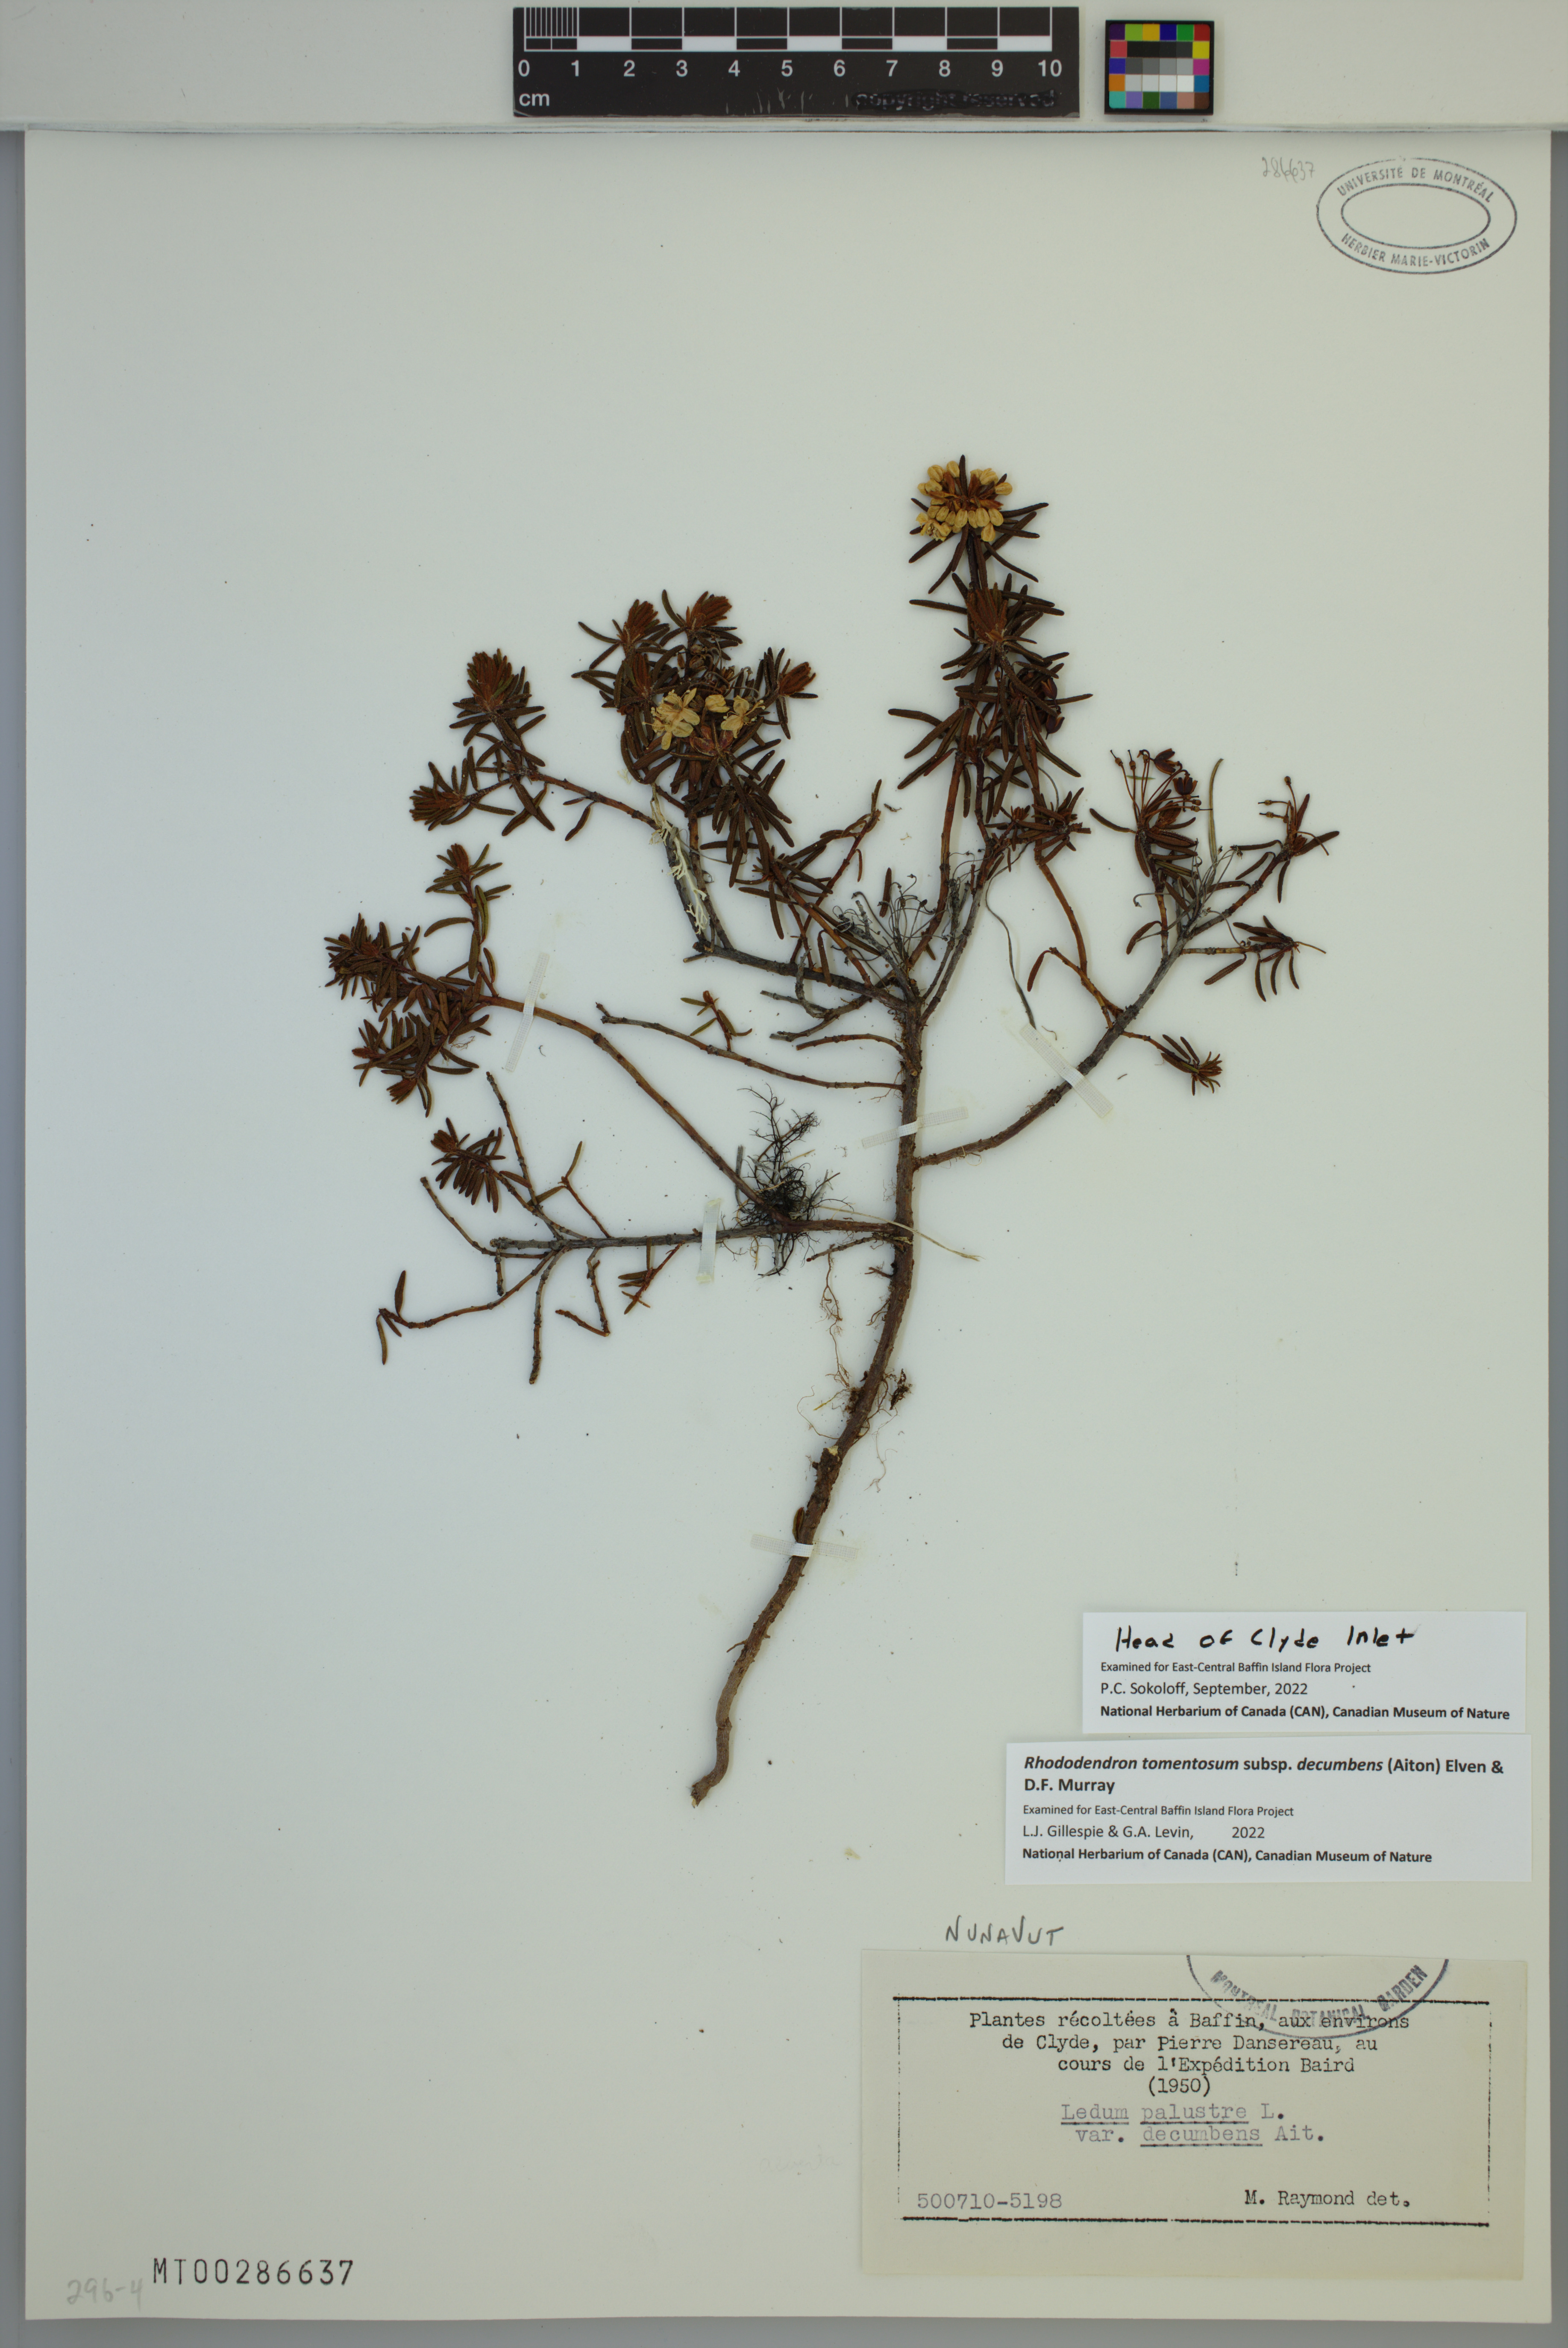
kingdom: Plantae
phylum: Tracheophyta
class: Magnoliopsida
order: Ericales
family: Ericaceae
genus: Rhododendron
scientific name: Rhododendron tomentosum
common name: Marsh labrador tea
